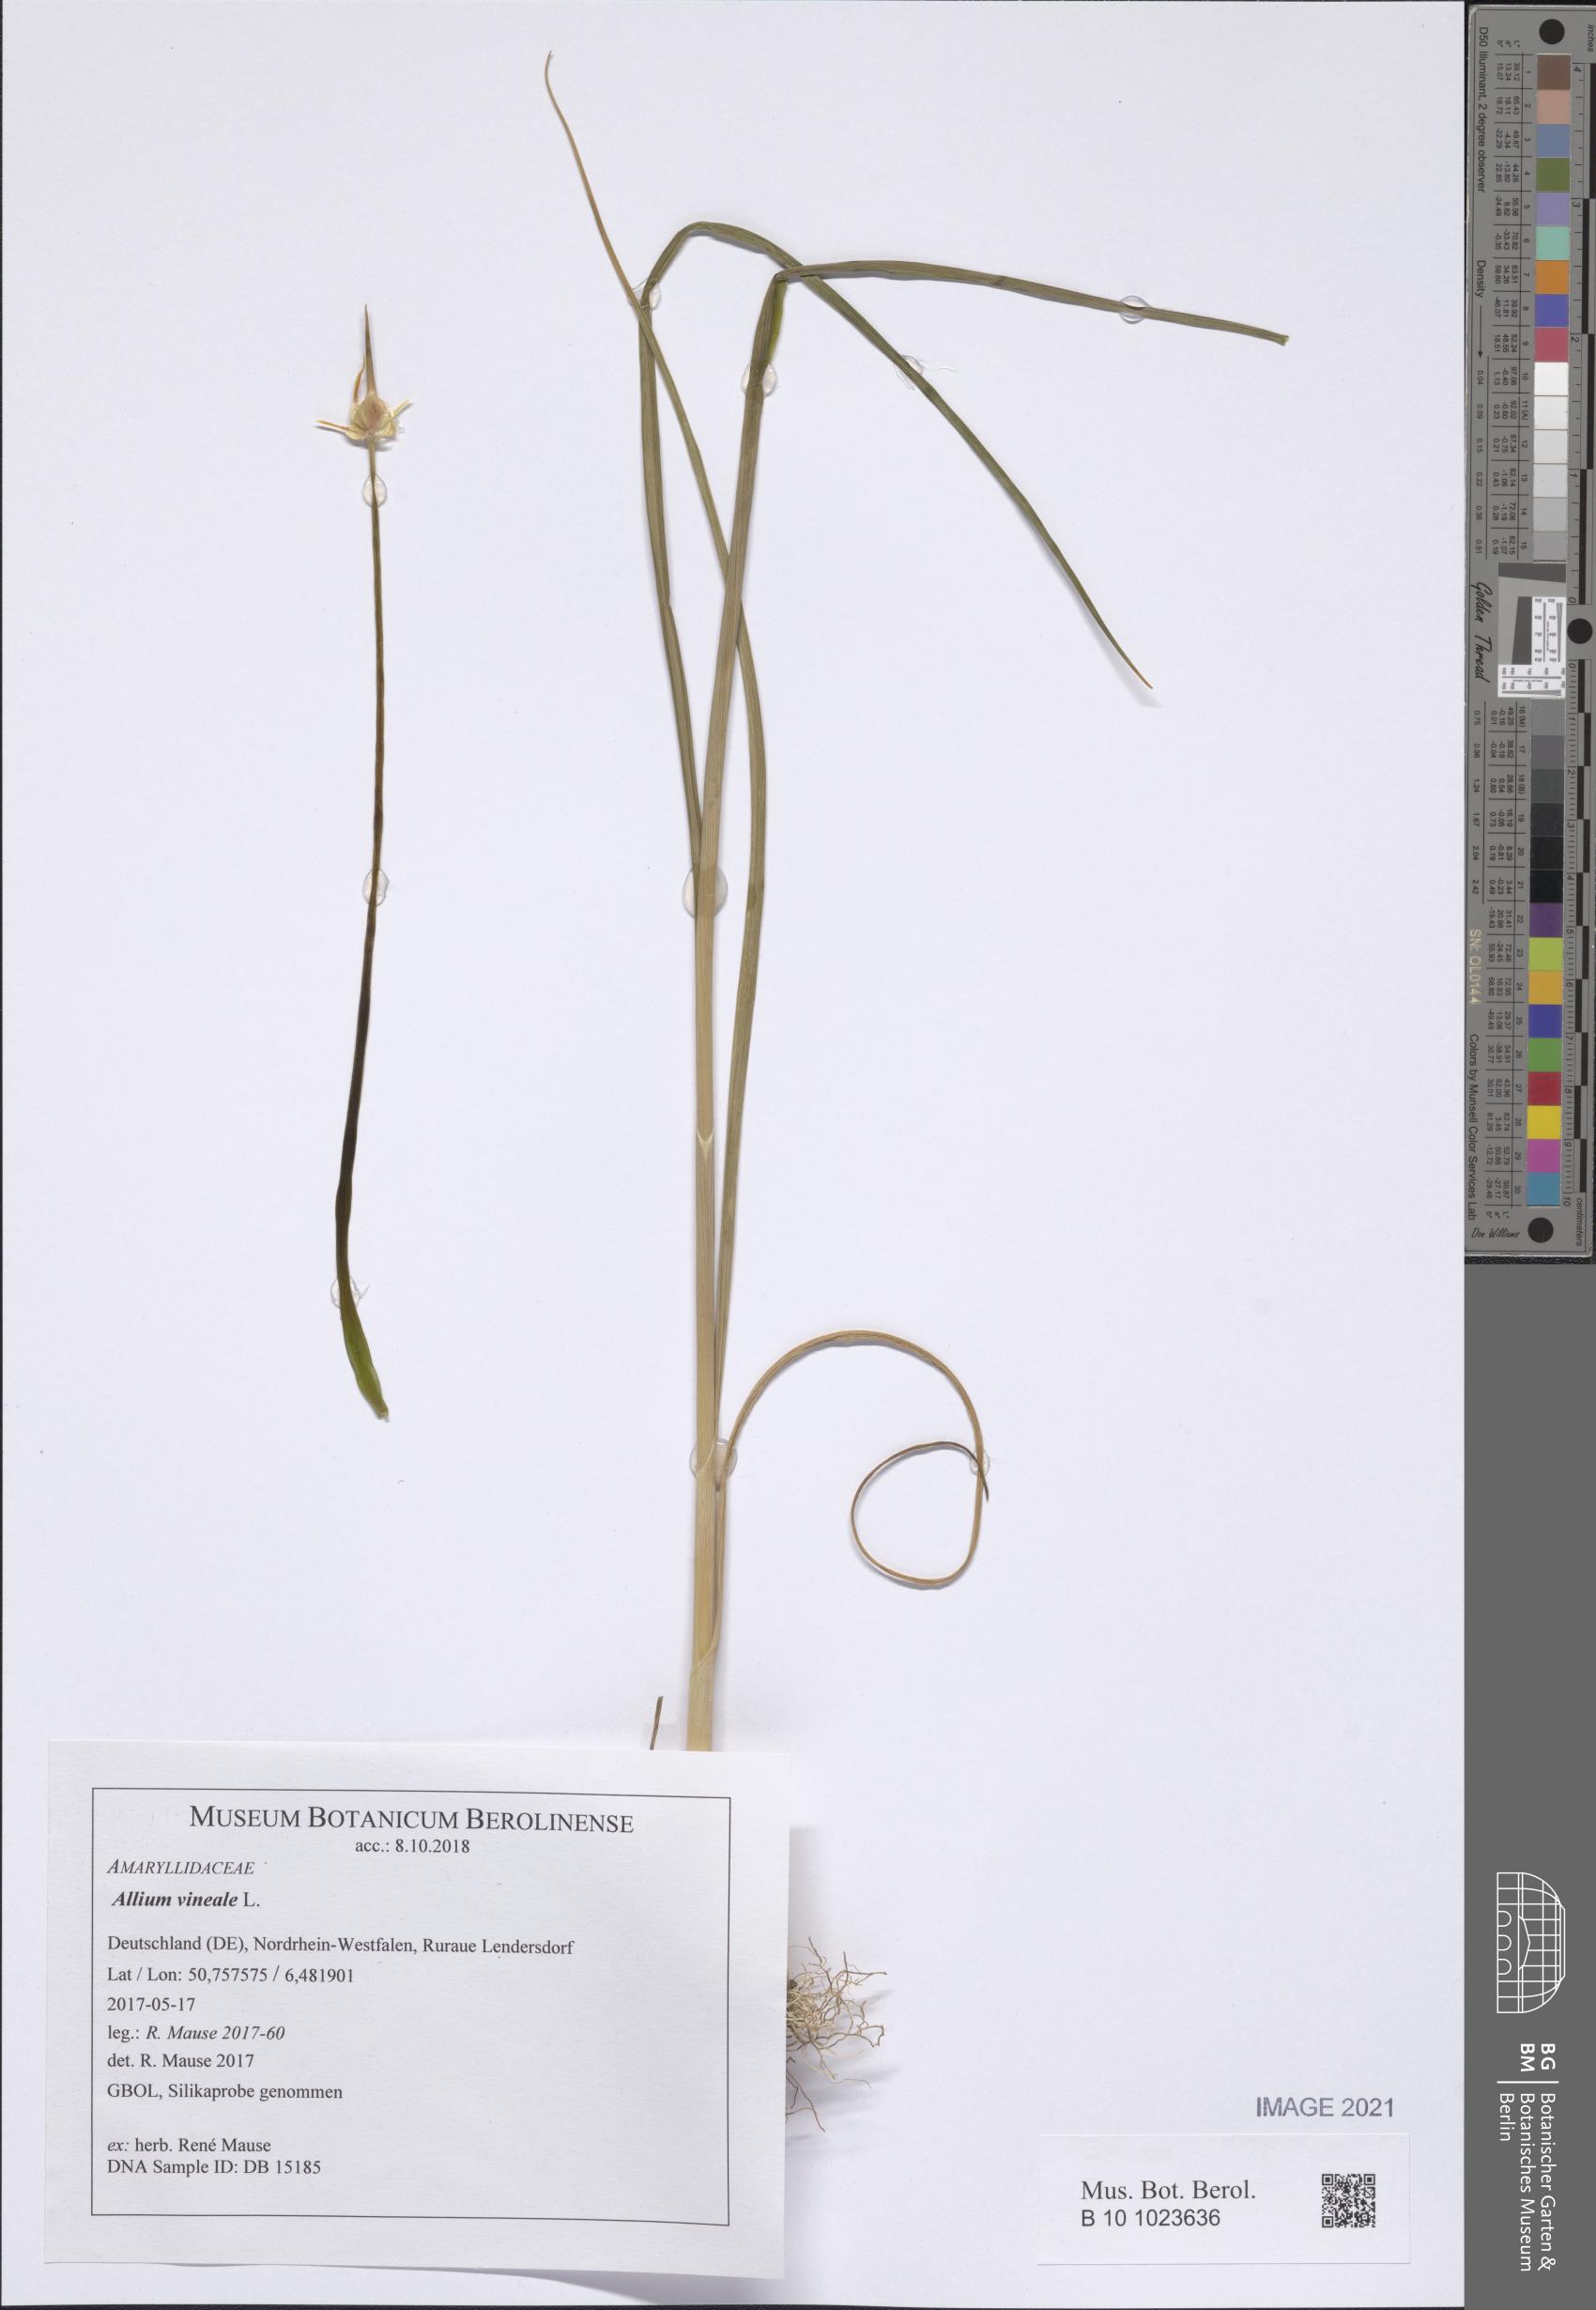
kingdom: Plantae
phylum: Tracheophyta
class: Liliopsida
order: Asparagales
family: Amaryllidaceae
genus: Allium
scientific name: Allium vineale
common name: Crow garlic
